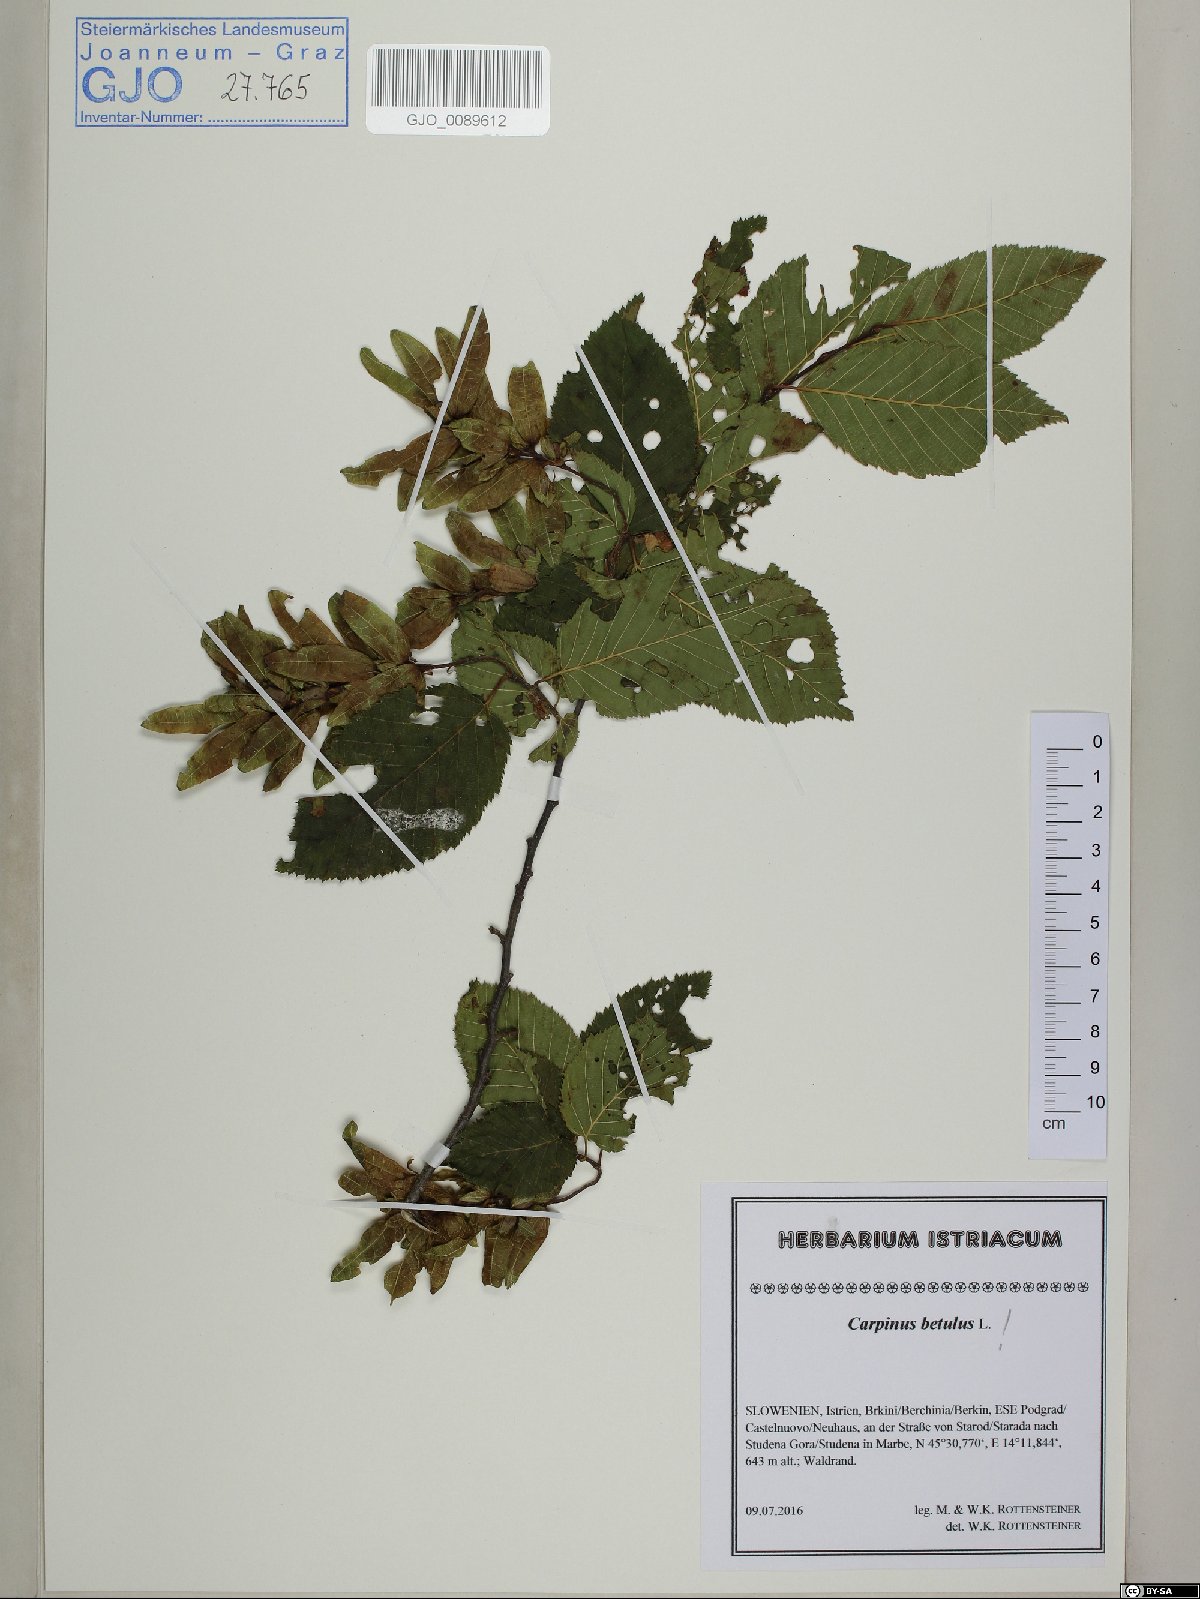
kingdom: Plantae
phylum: Tracheophyta
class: Magnoliopsida
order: Fagales
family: Betulaceae
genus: Carpinus
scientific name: Carpinus betulus
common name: Hornbeam
